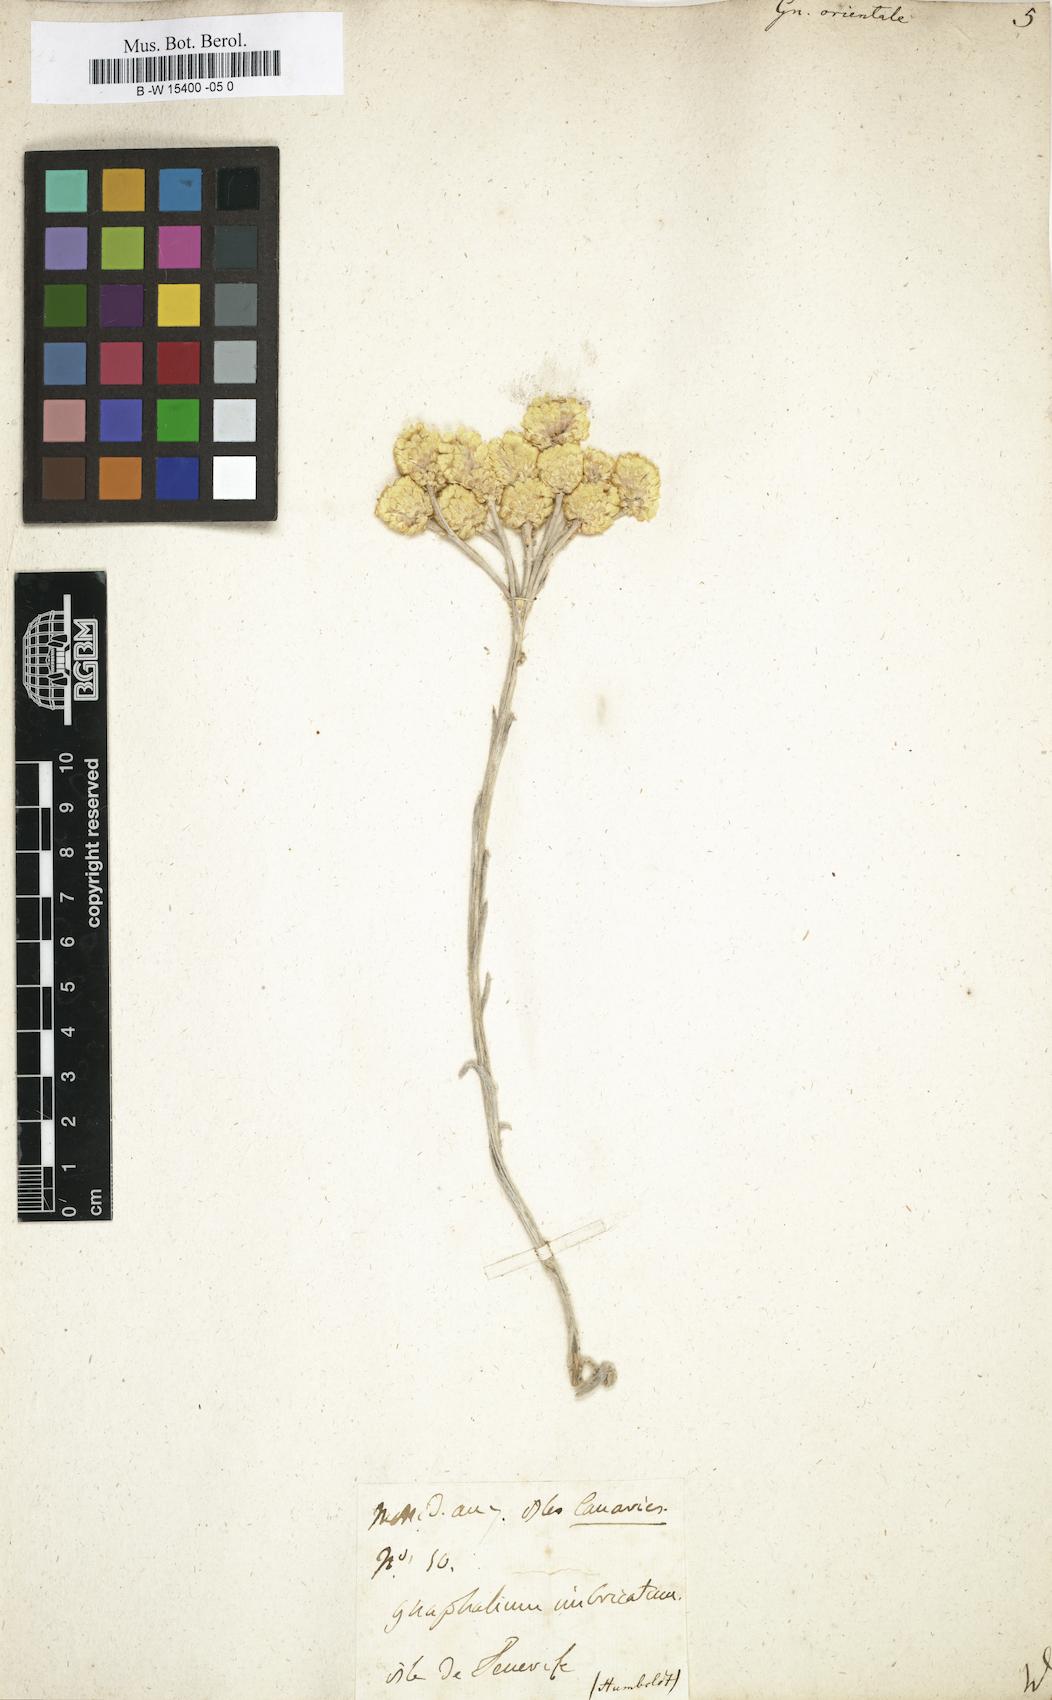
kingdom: Plantae
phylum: Tracheophyta
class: Magnoliopsida
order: Asterales
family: Asteraceae
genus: Helichrysum
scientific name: Helichrysum orientale
